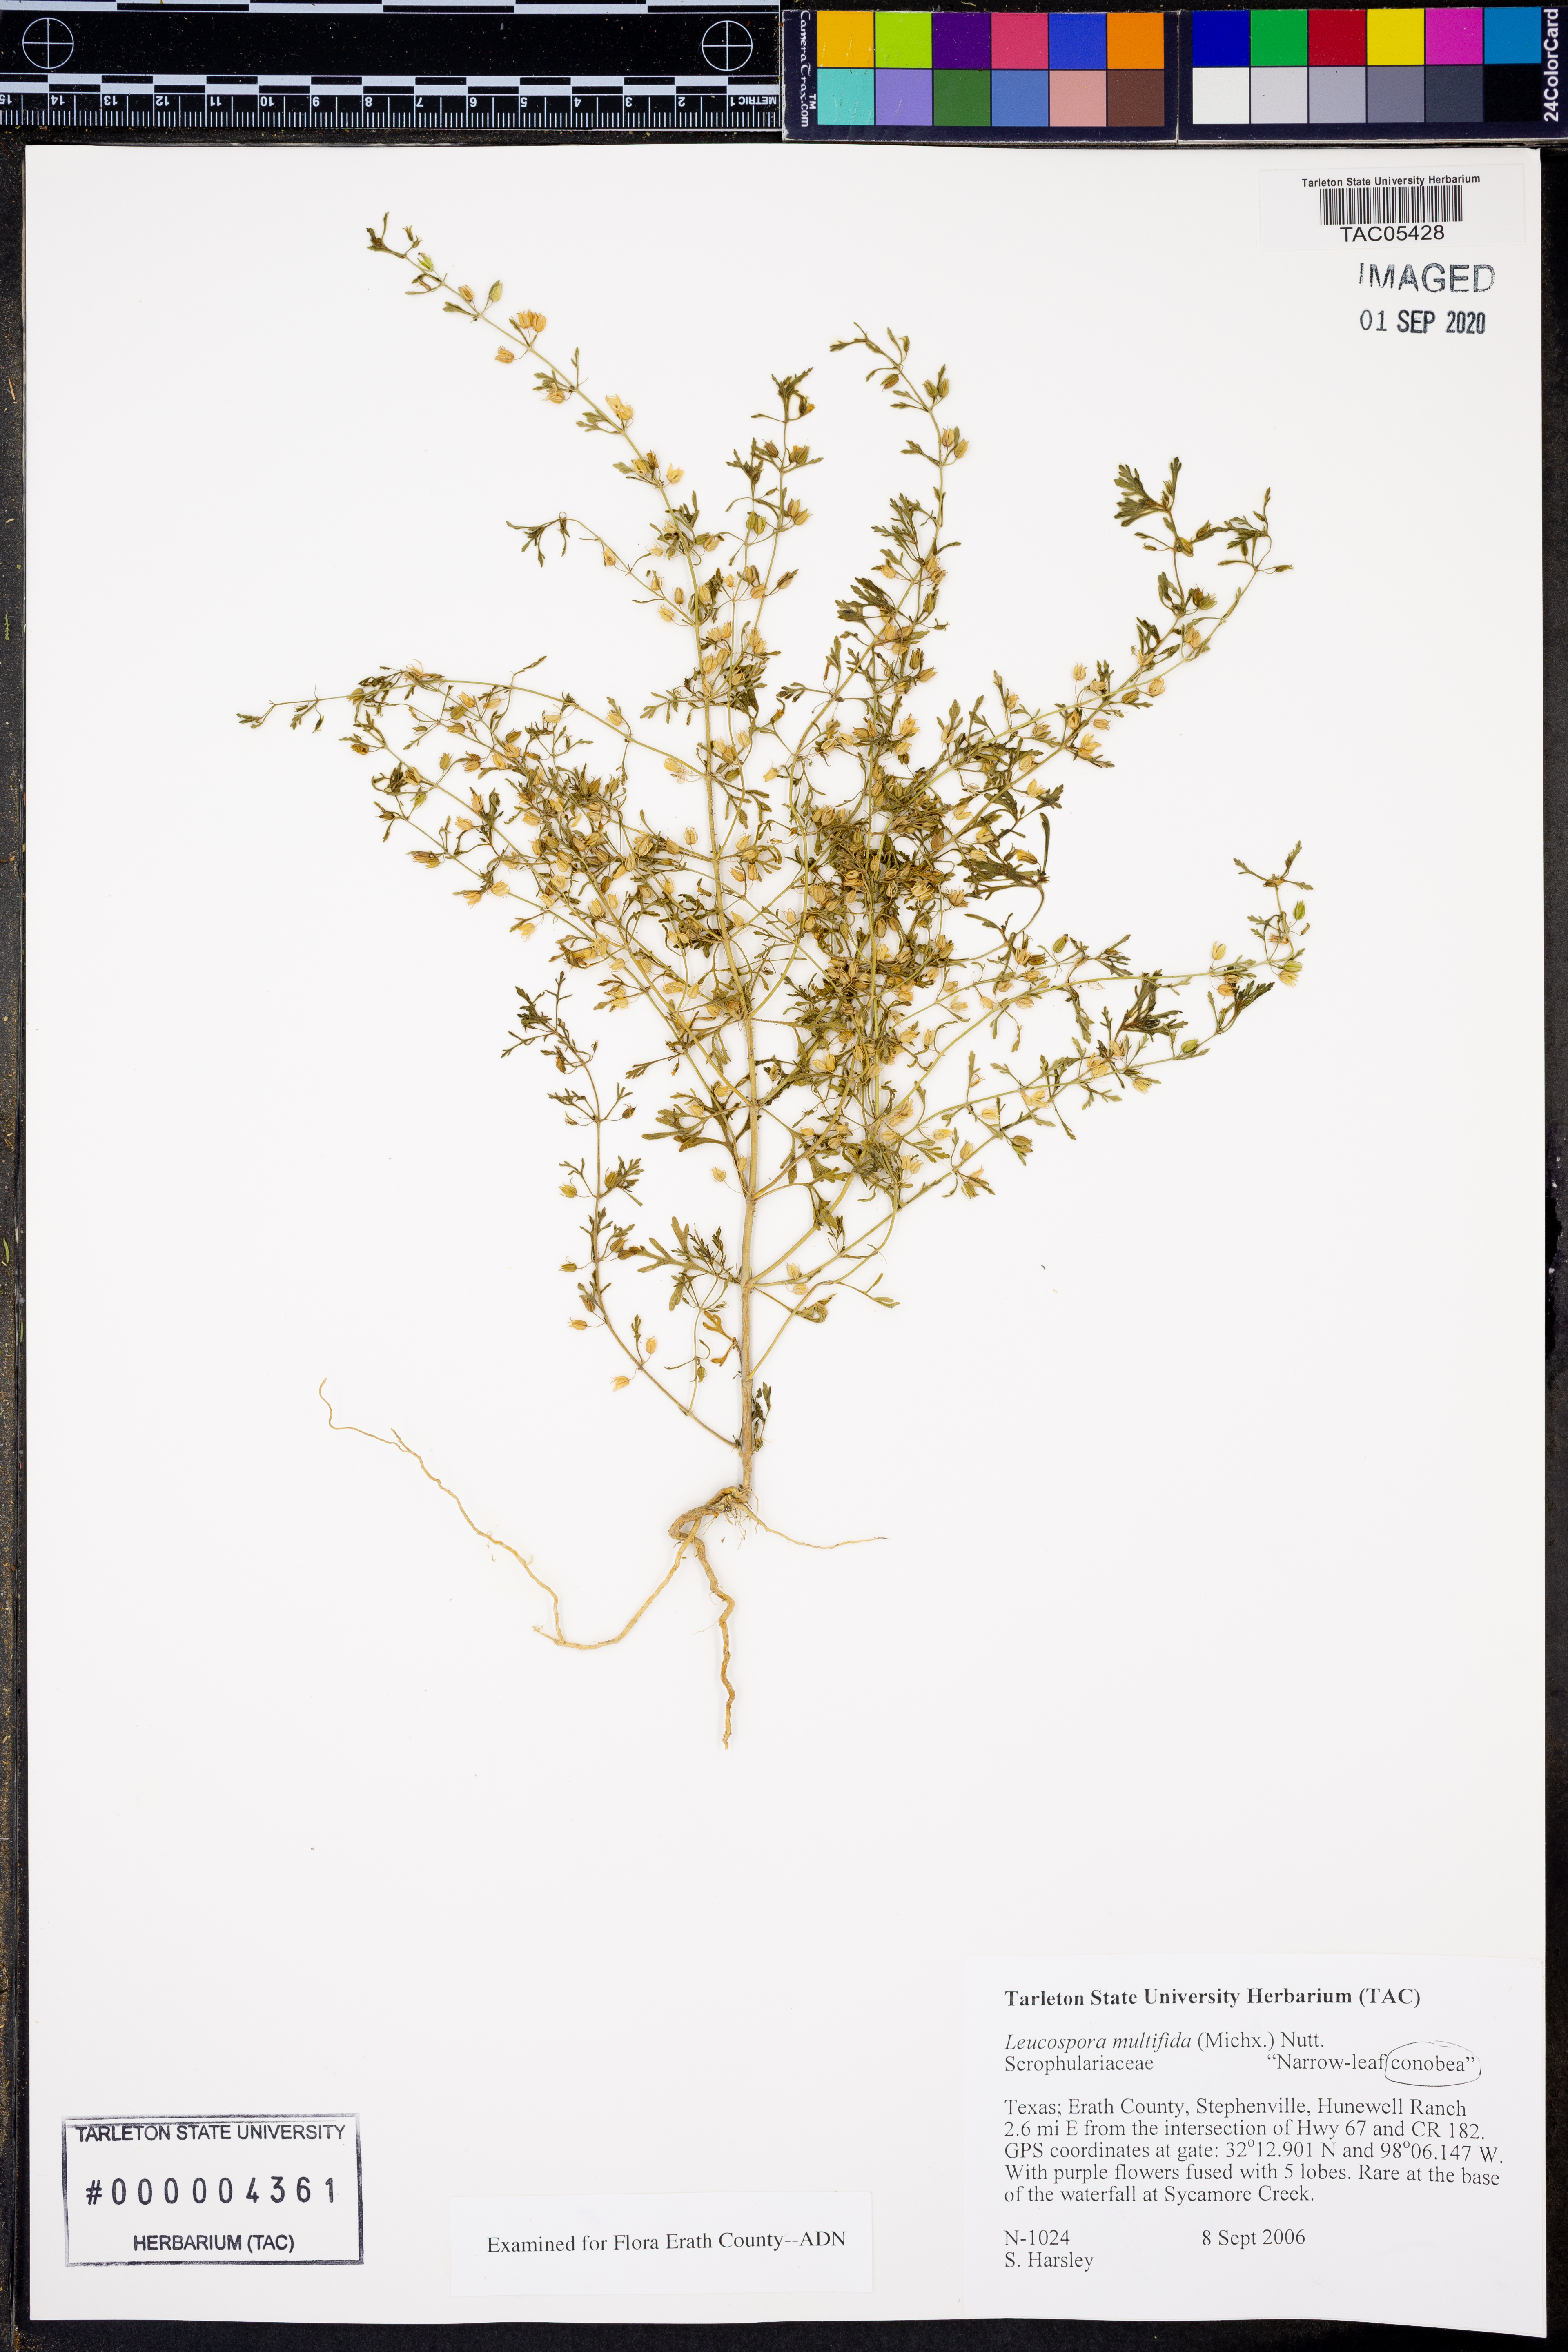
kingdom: Plantae
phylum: Tracheophyta
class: Magnoliopsida
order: Lamiales
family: Plantaginaceae
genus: Leucospora
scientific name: Leucospora multifida
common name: Narrow-leaf paleseed
